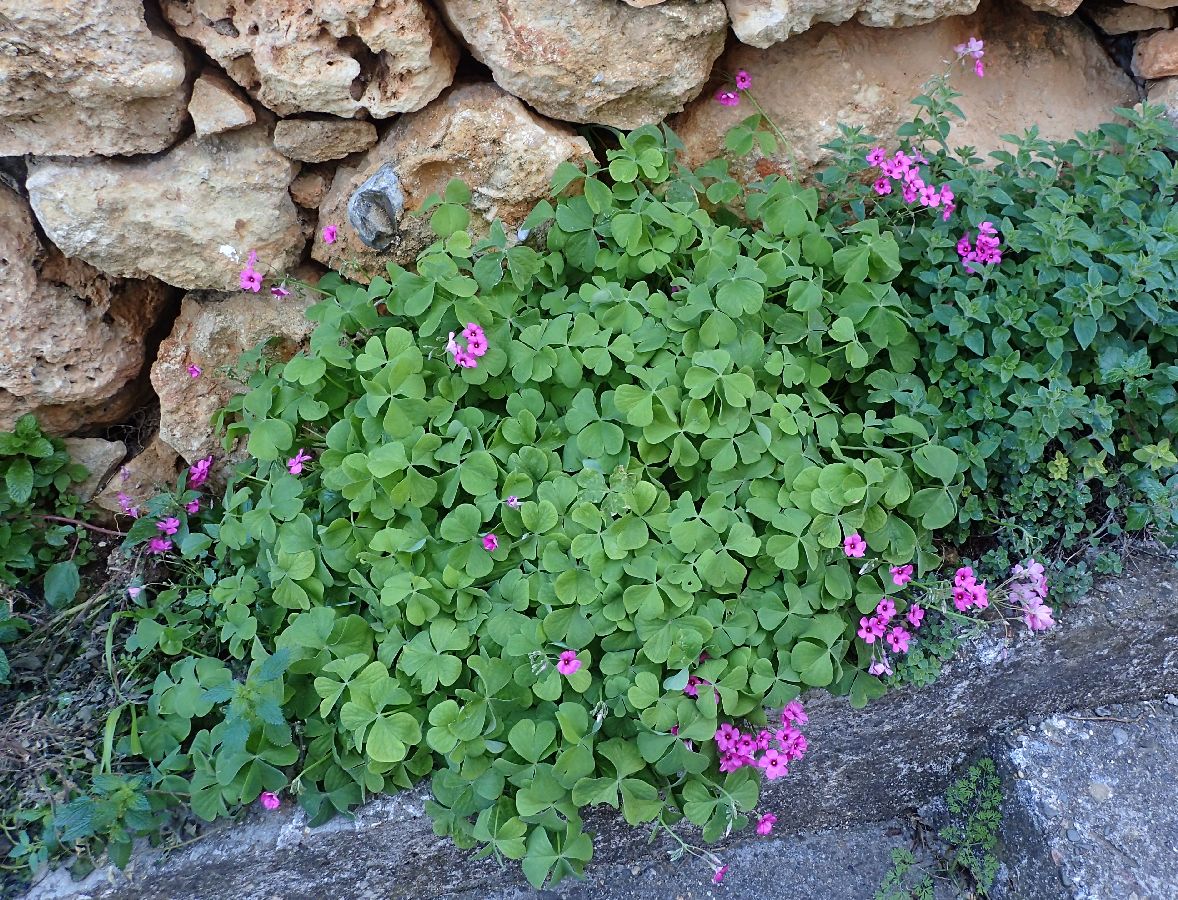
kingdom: Plantae
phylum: Tracheophyta
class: Magnoliopsida
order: Oxalidales
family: Oxalidaceae
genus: Oxalis
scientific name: Oxalis debilis
